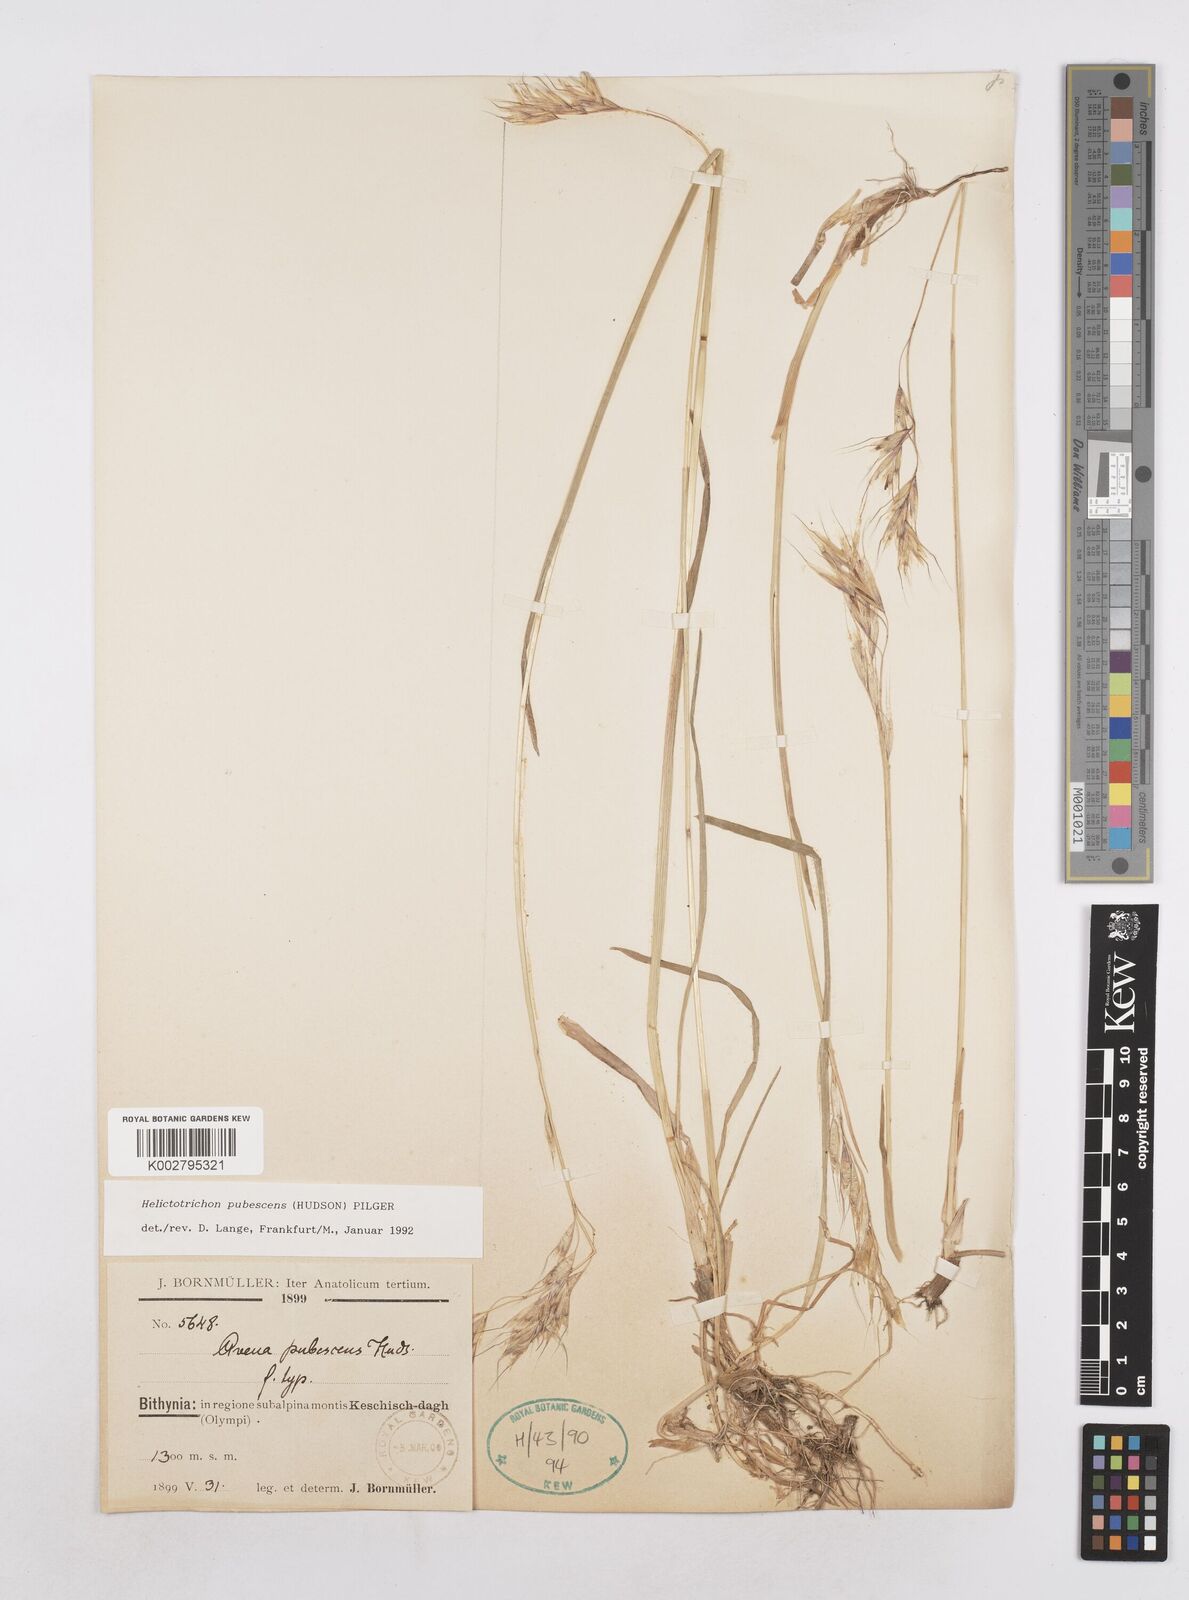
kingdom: Plantae
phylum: Tracheophyta
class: Liliopsida
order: Poales
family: Poaceae
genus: Avenula
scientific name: Avenula pubescens
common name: Downy alpine oatgrass
